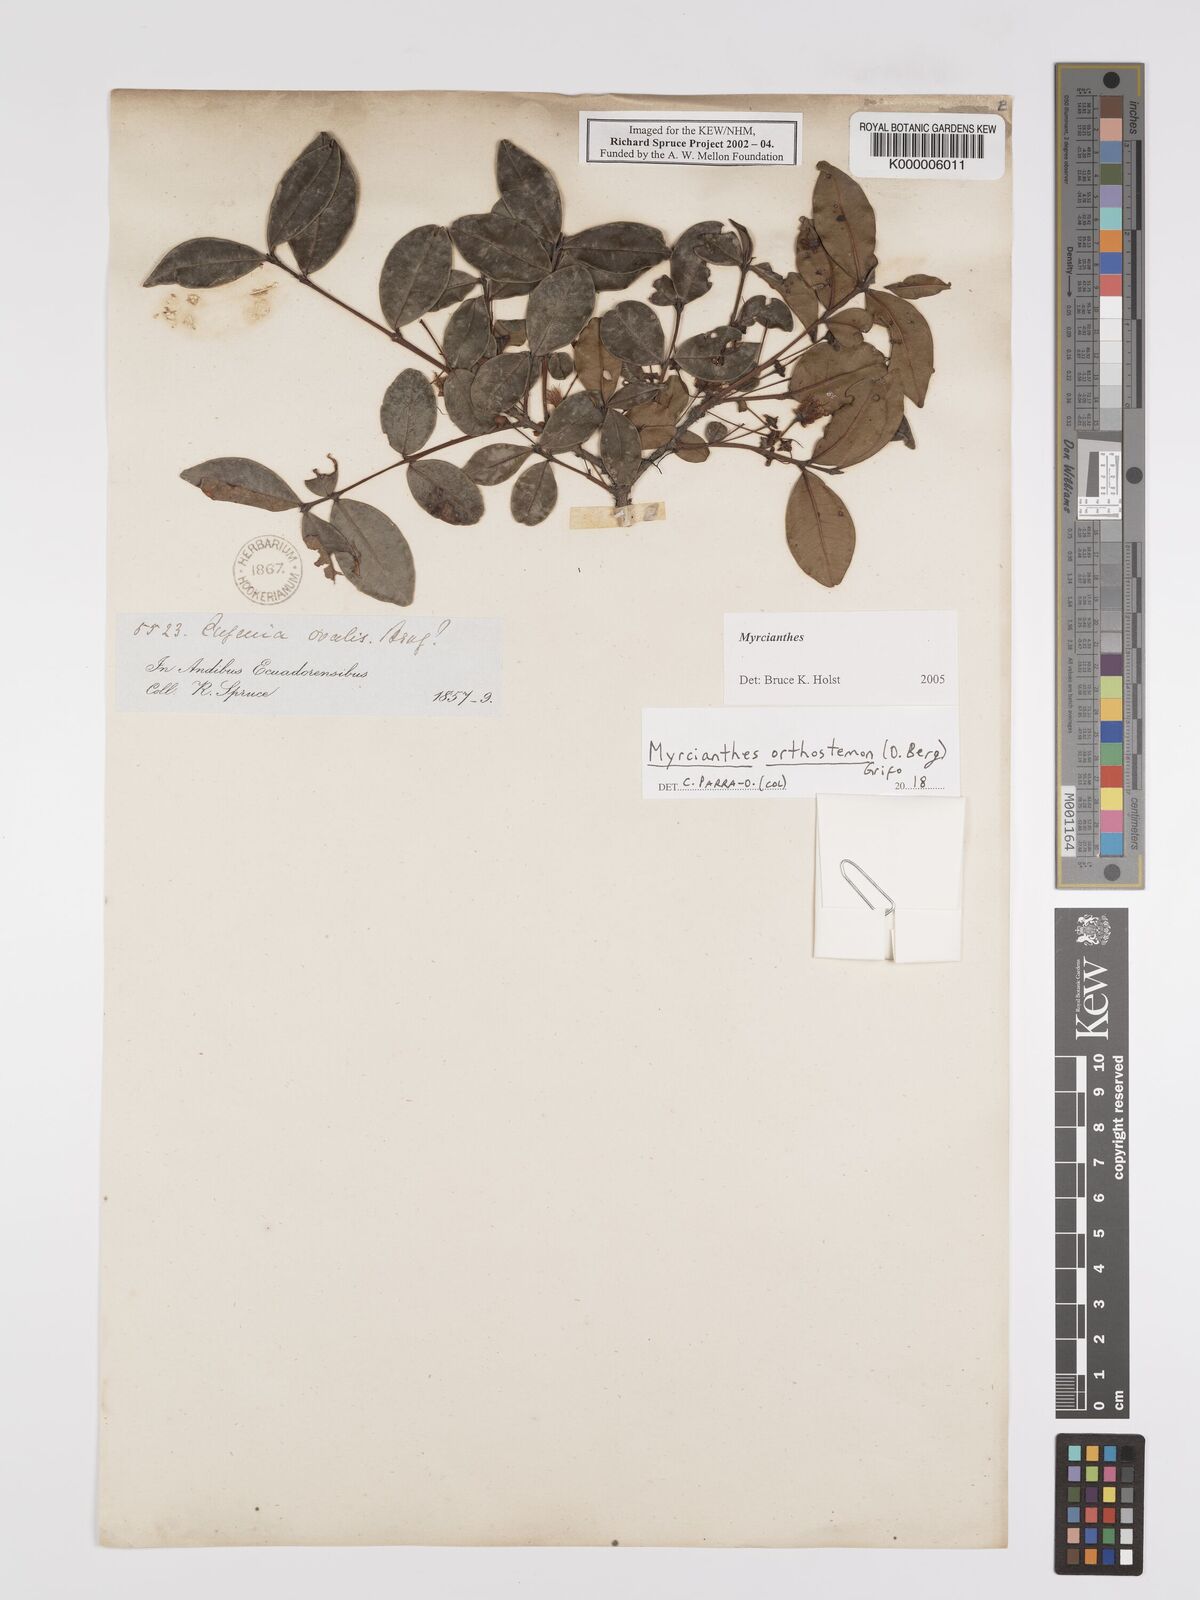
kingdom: Plantae
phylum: Tracheophyta
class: Magnoliopsida
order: Myrtales
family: Myrtaceae
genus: Myrcianthes
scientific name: Myrcianthes
